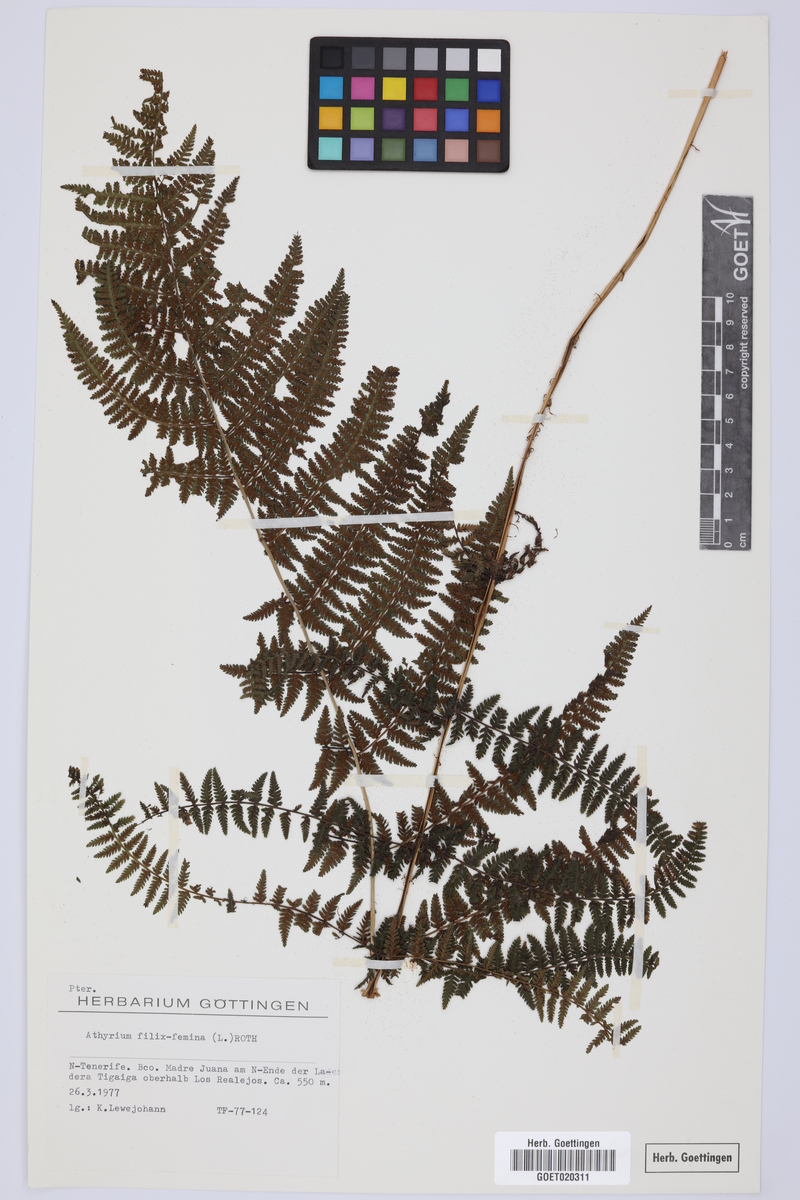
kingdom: Plantae
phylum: Tracheophyta
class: Polypodiopsida
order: Polypodiales
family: Athyriaceae
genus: Athyrium
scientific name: Athyrium filix-femina
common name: Lady fern
